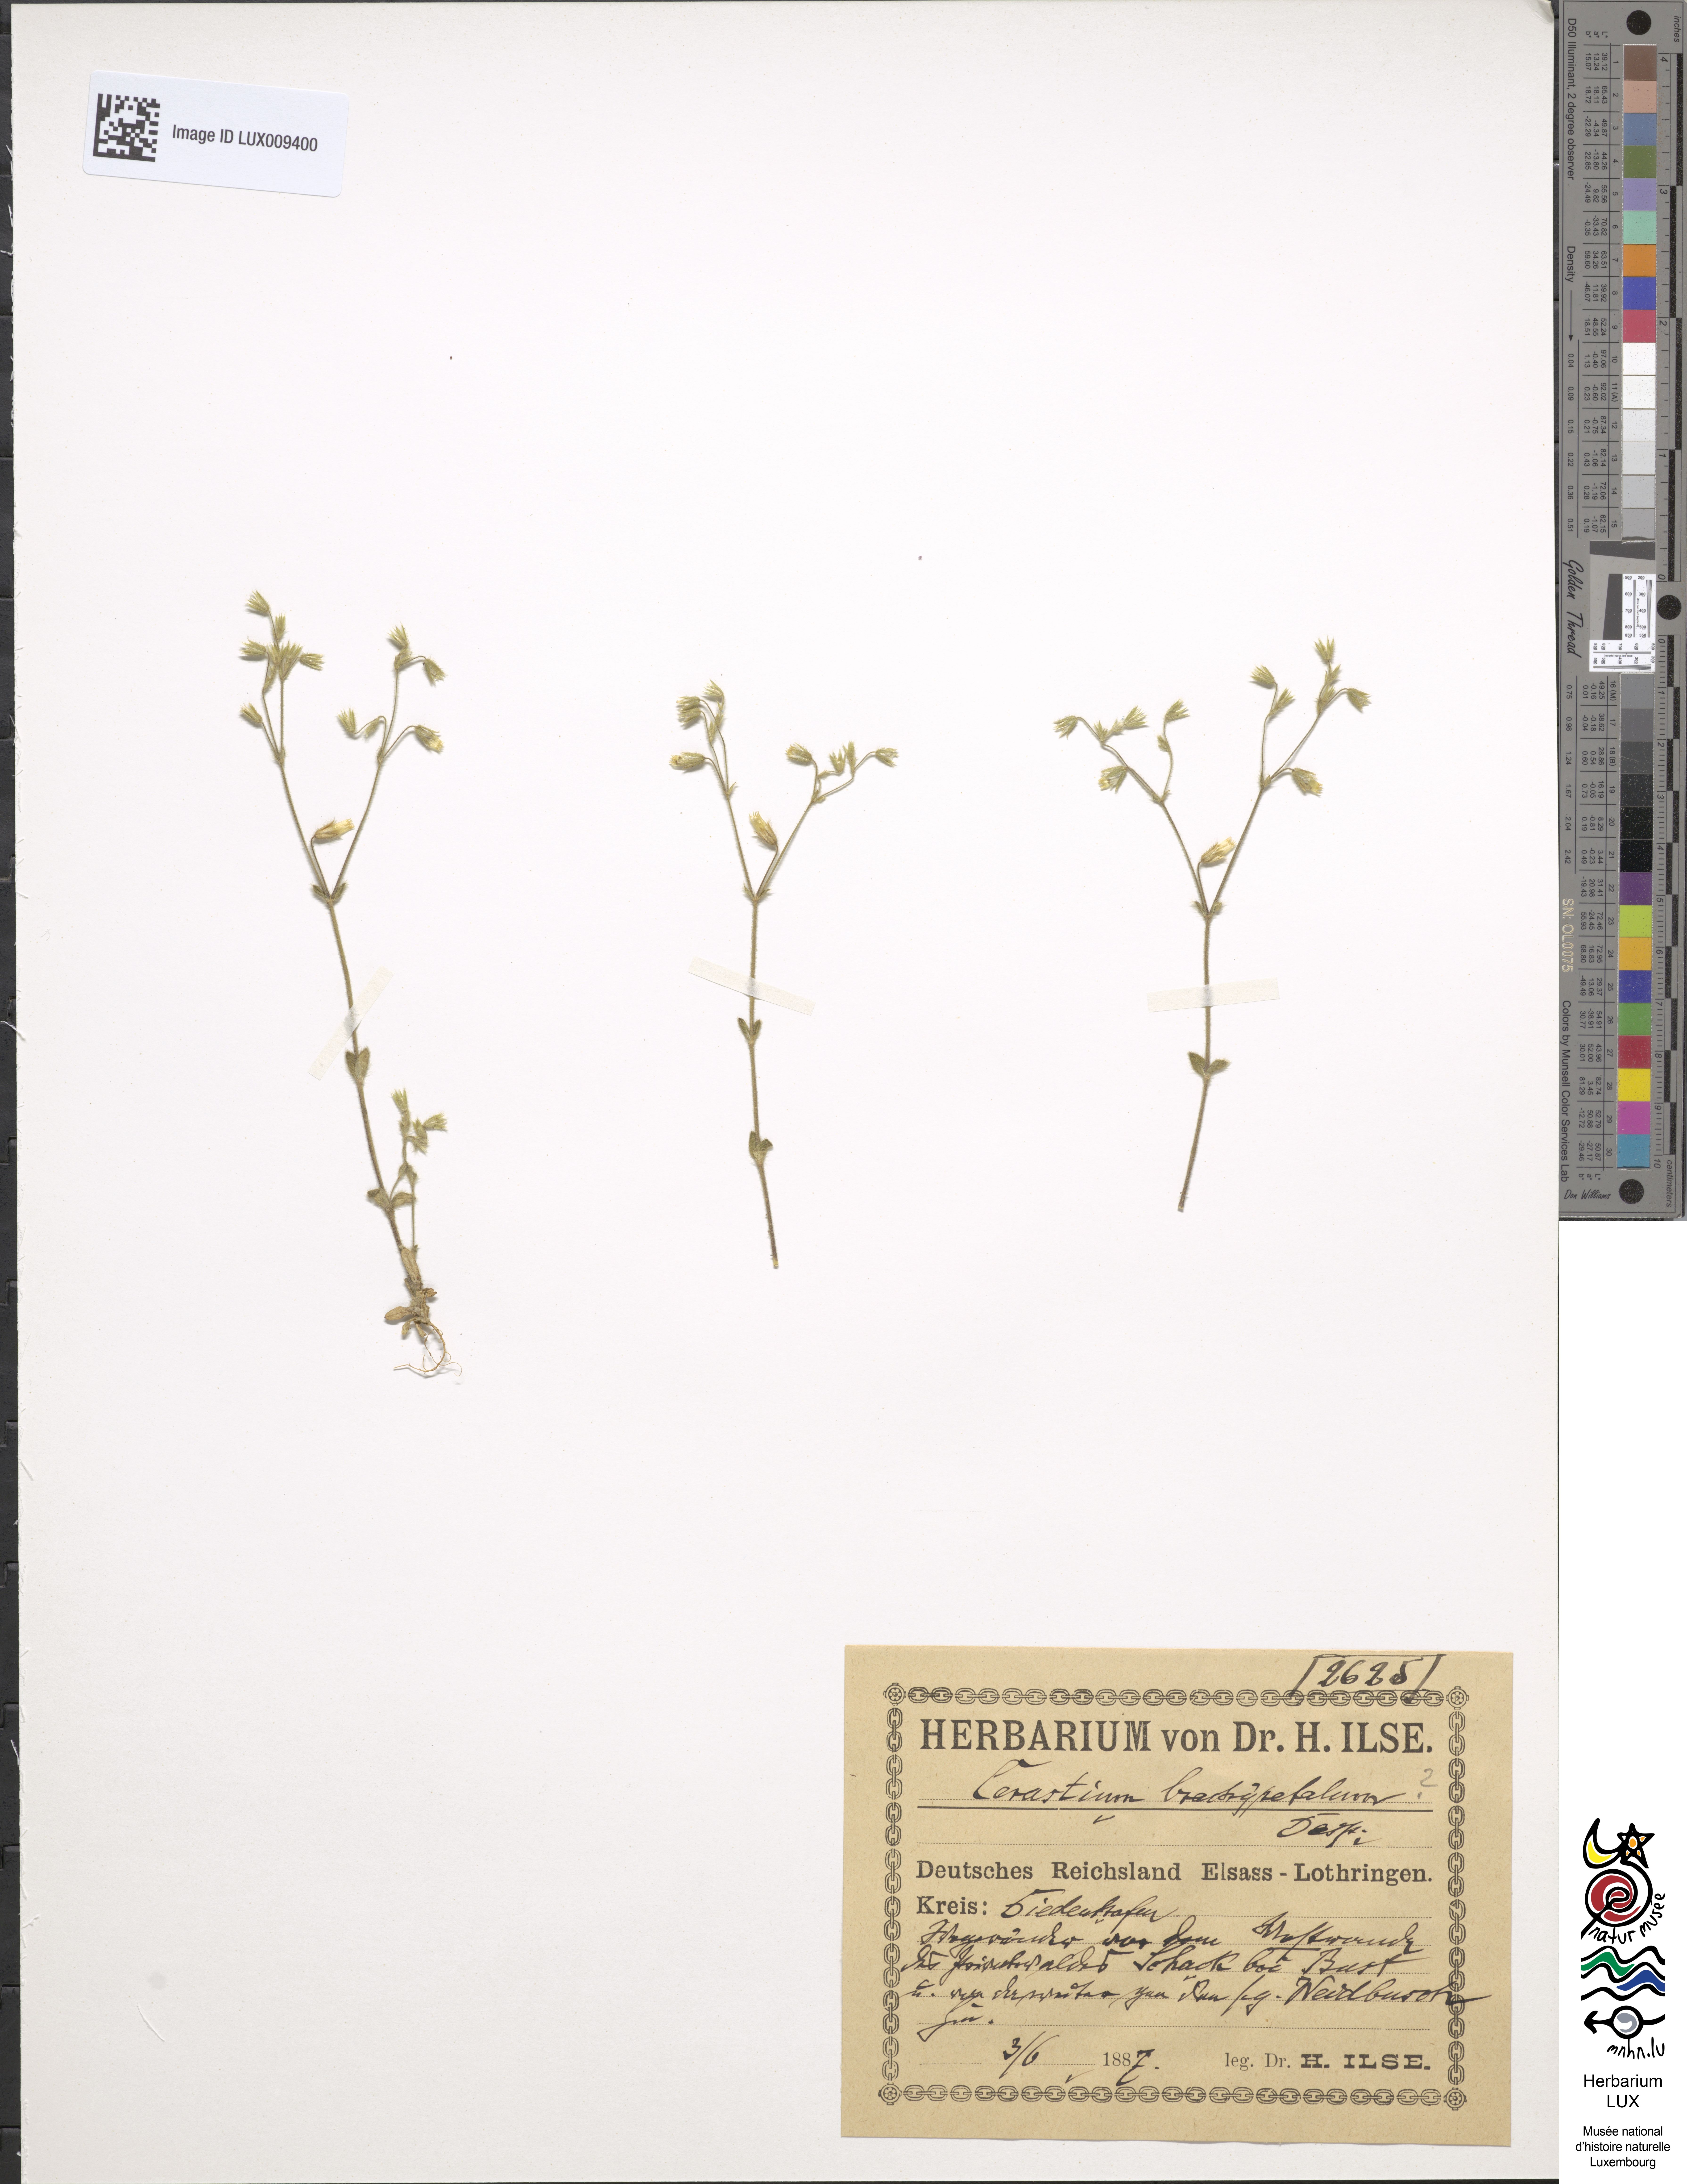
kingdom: Plantae
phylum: Tracheophyta
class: Magnoliopsida
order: Caryophyllales
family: Caryophyllaceae
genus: Cerastium
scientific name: Cerastium brachypetalum
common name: Grey mouse-ear
